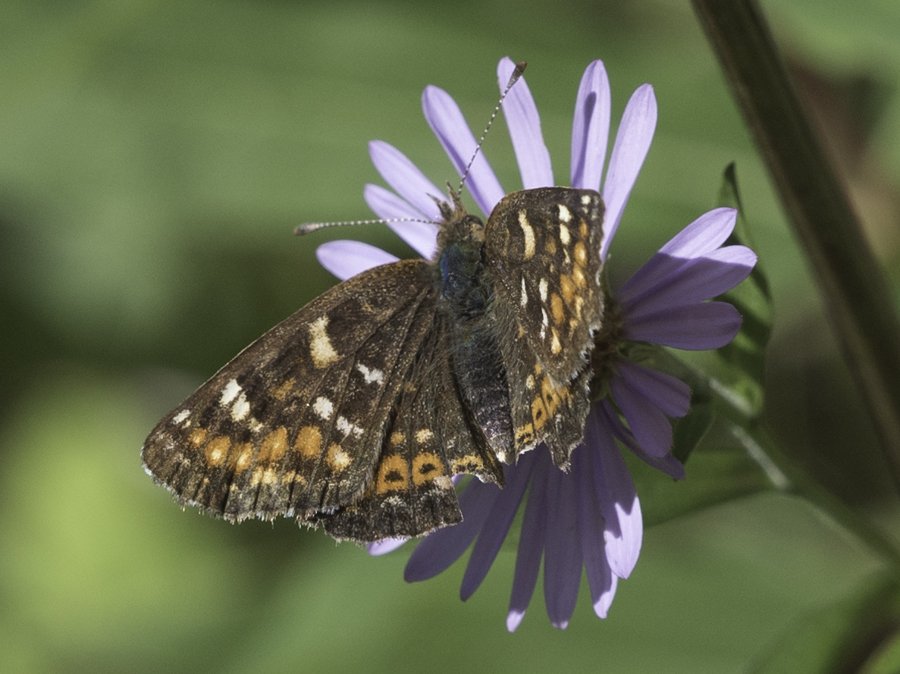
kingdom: Animalia
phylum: Arthropoda
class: Insecta
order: Lepidoptera
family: Nymphalidae
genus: Phyciodes
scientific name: Phyciodes tharos
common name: Field Crescent
